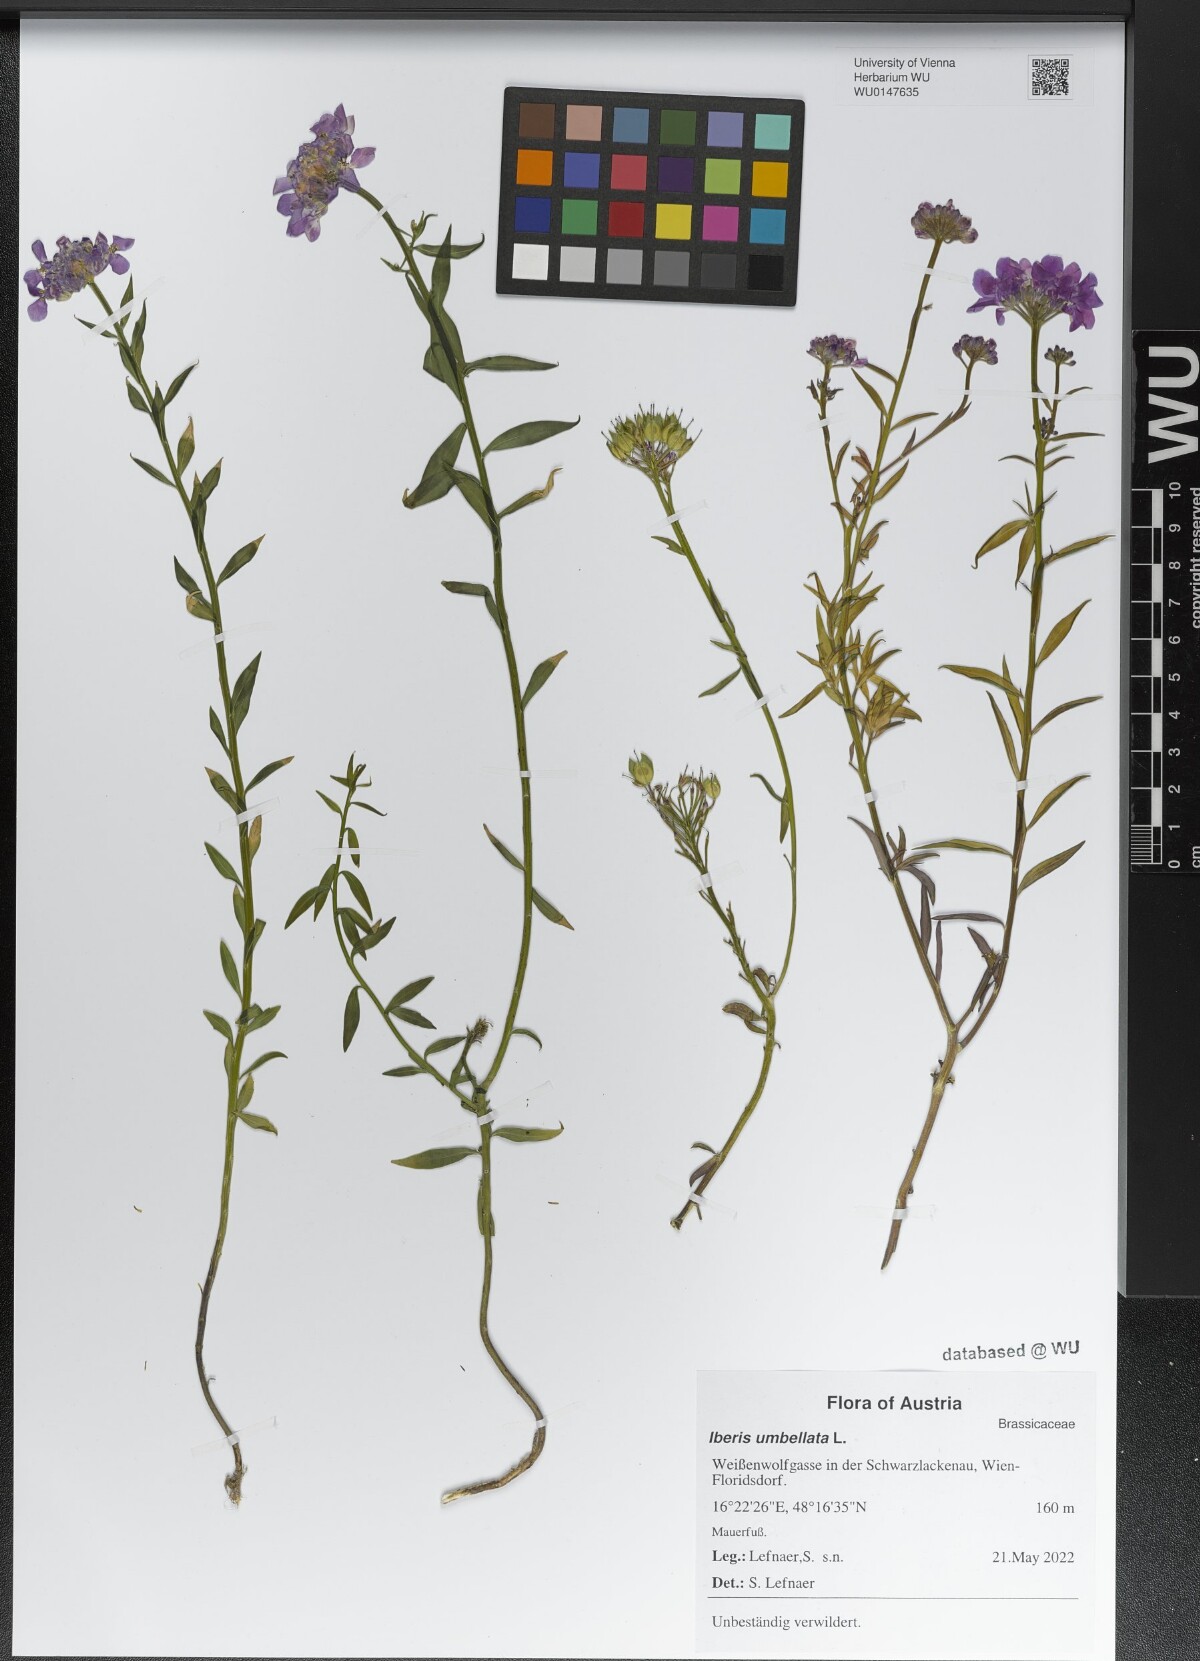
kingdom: Plantae
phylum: Tracheophyta
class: Magnoliopsida
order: Brassicales
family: Brassicaceae
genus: Iberis
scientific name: Iberis umbellata
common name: Globe candytuft
